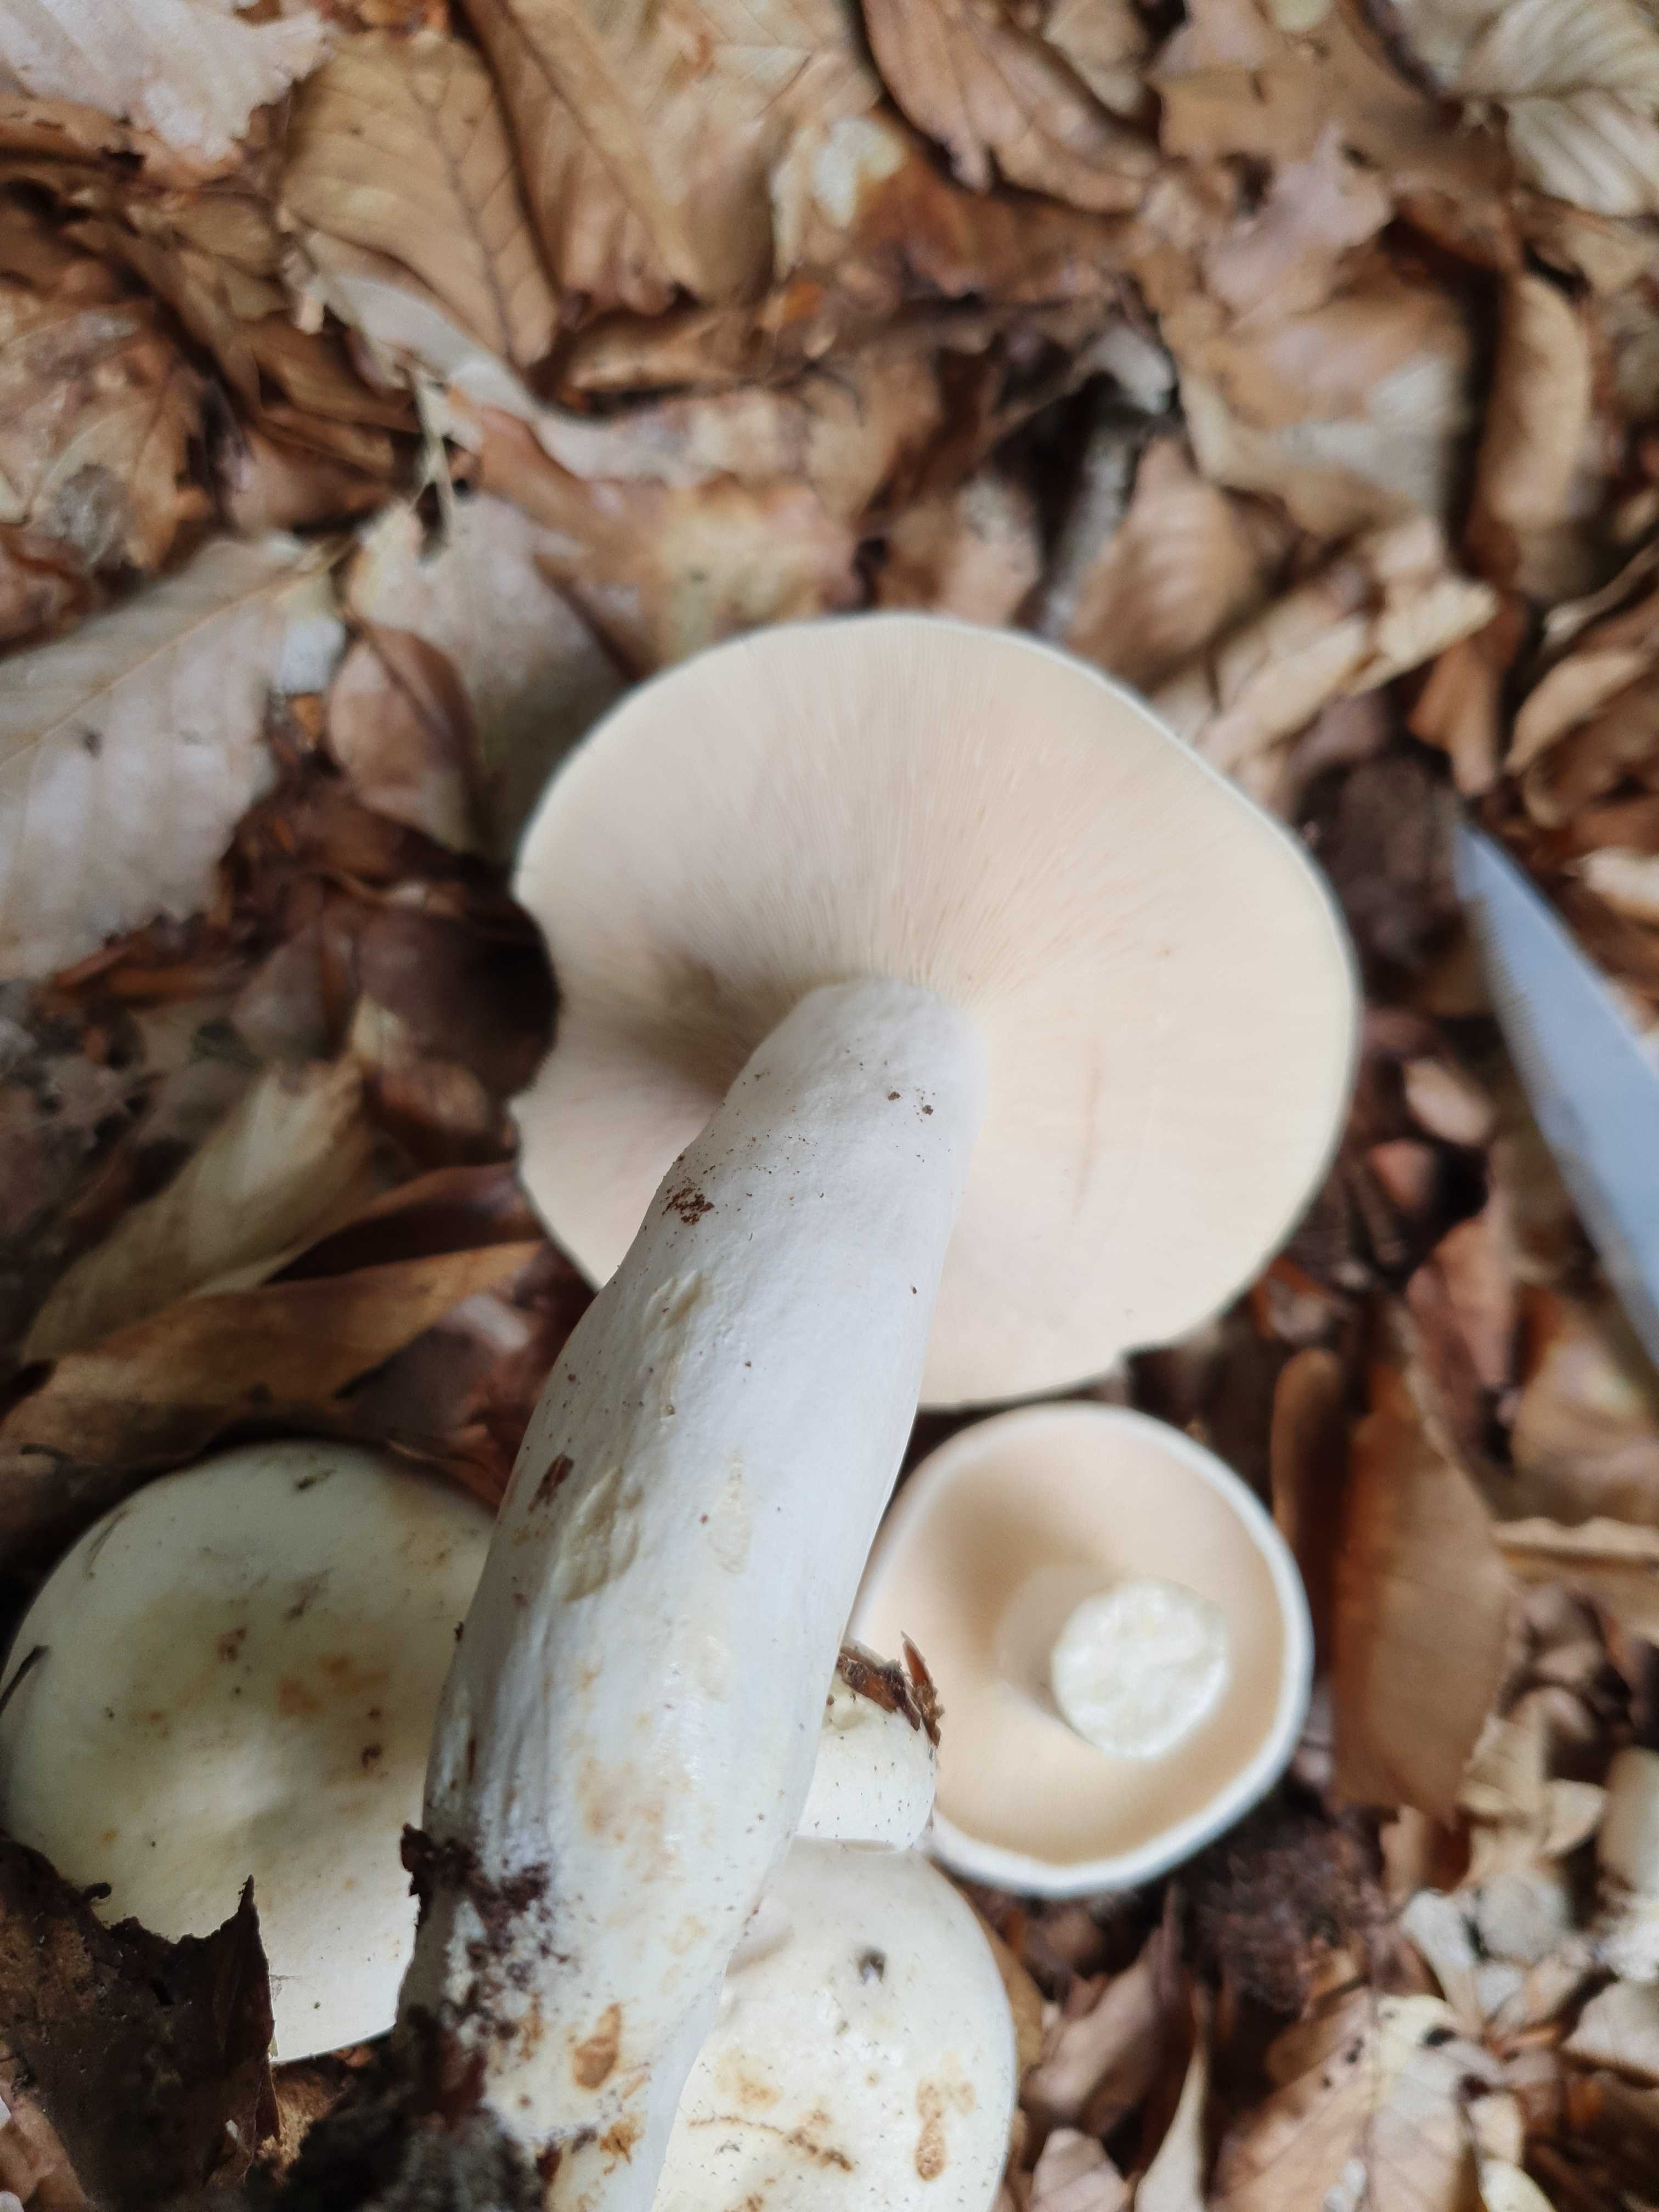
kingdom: Fungi
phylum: Basidiomycota
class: Agaricomycetes
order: Russulales
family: Russulaceae
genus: Lactifluus
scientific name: Lactifluus piperatus
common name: peber-mælkehat
